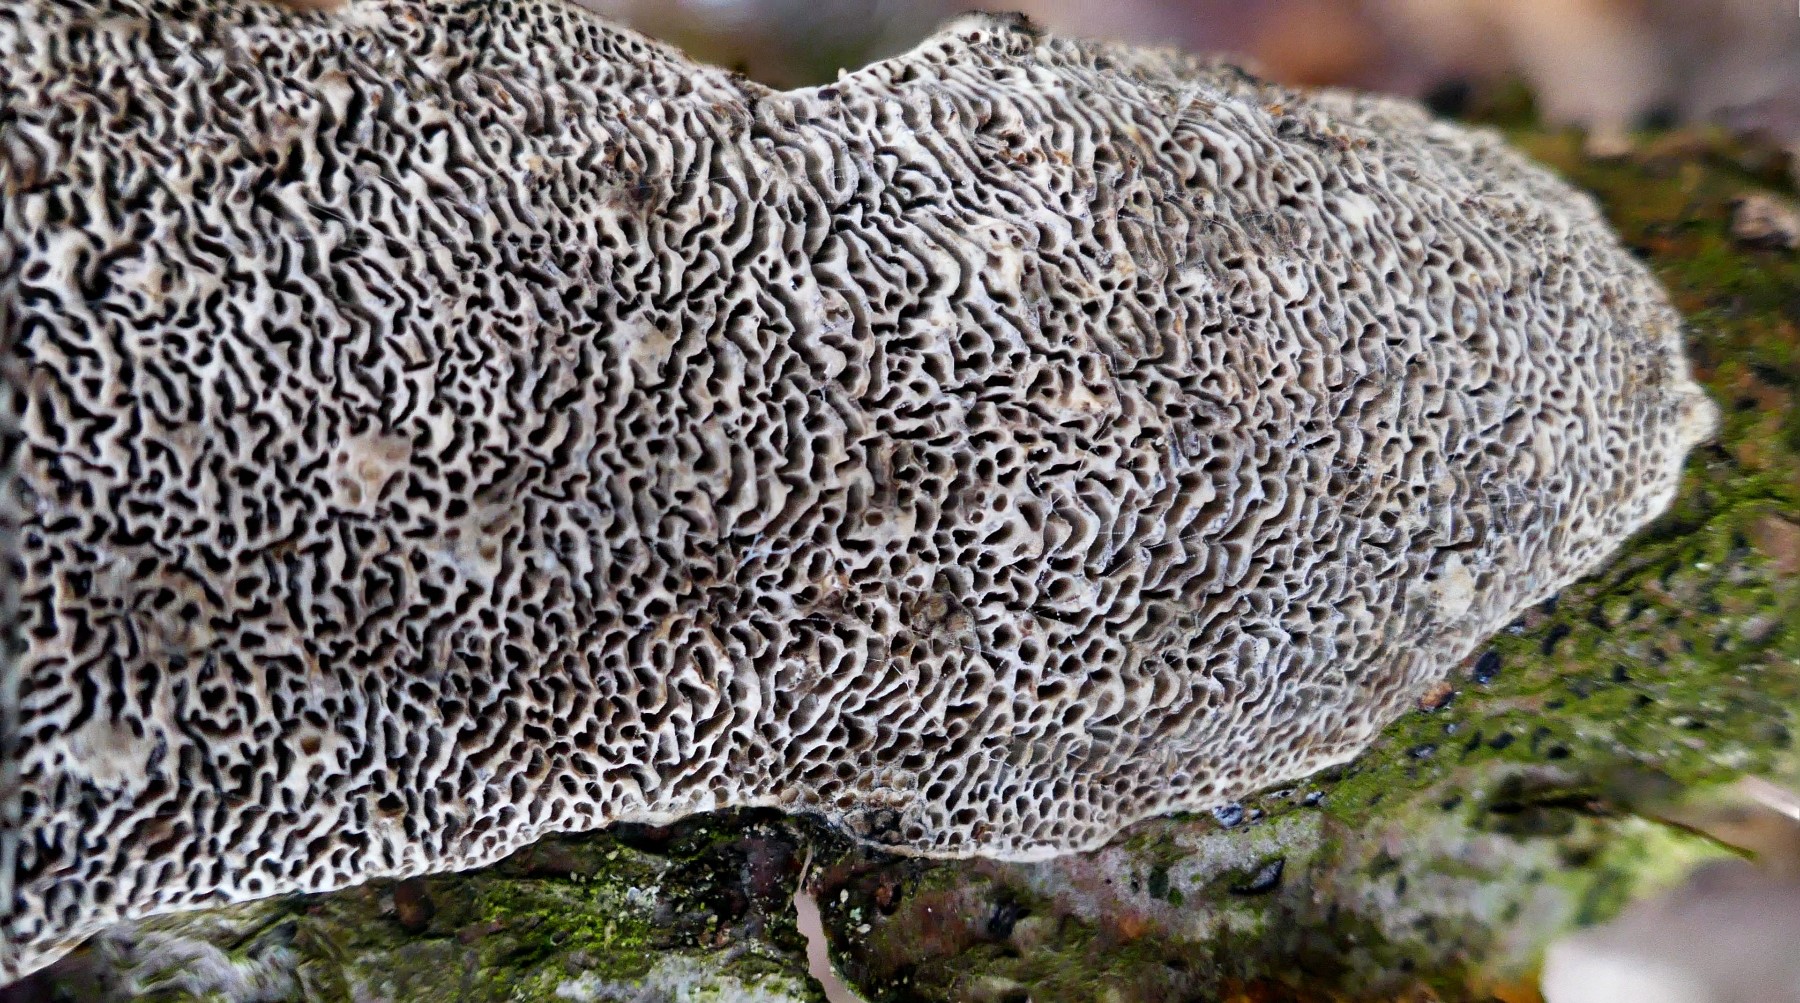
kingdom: Fungi
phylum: Basidiomycota
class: Agaricomycetes
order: Polyporales
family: Polyporaceae
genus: Podofomes
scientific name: Podofomes mollis
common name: blød begporesvamp
